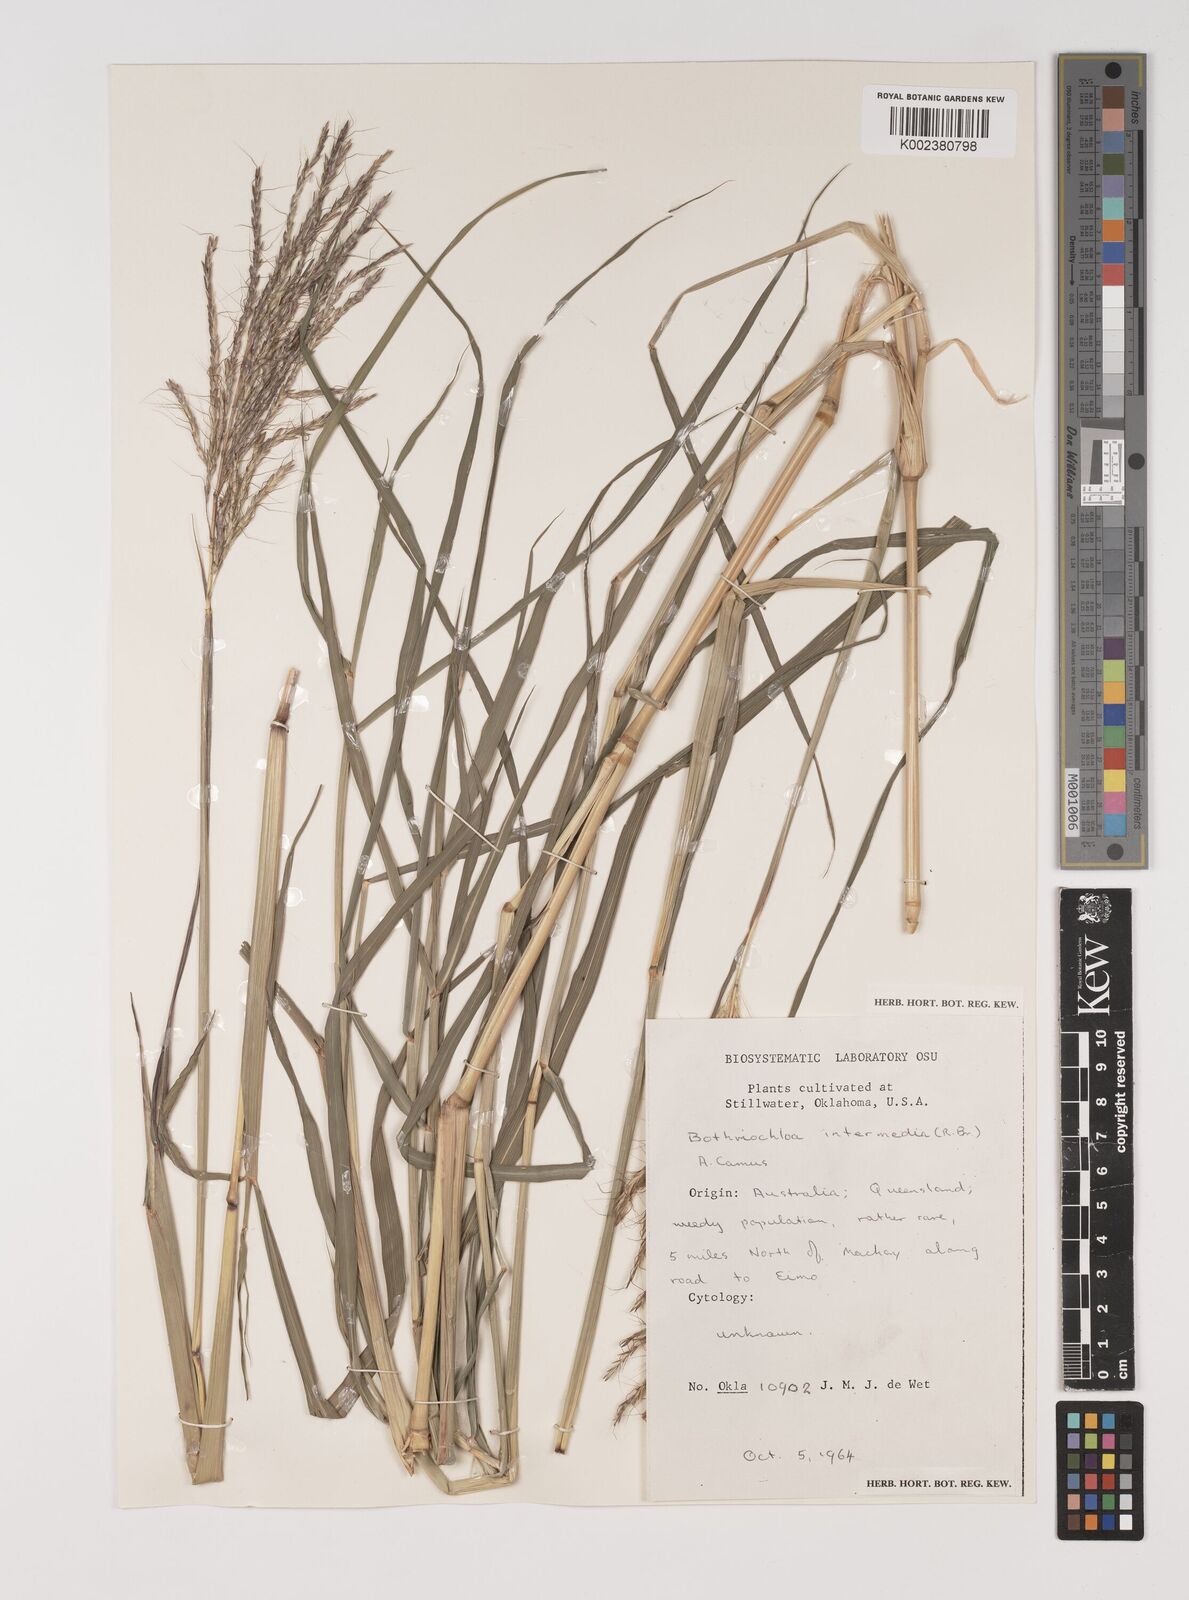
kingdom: Plantae
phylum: Tracheophyta
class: Liliopsida
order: Poales
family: Poaceae
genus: Bothriochloa
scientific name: Bothriochloa bladhii
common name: Caucasian bluestem
